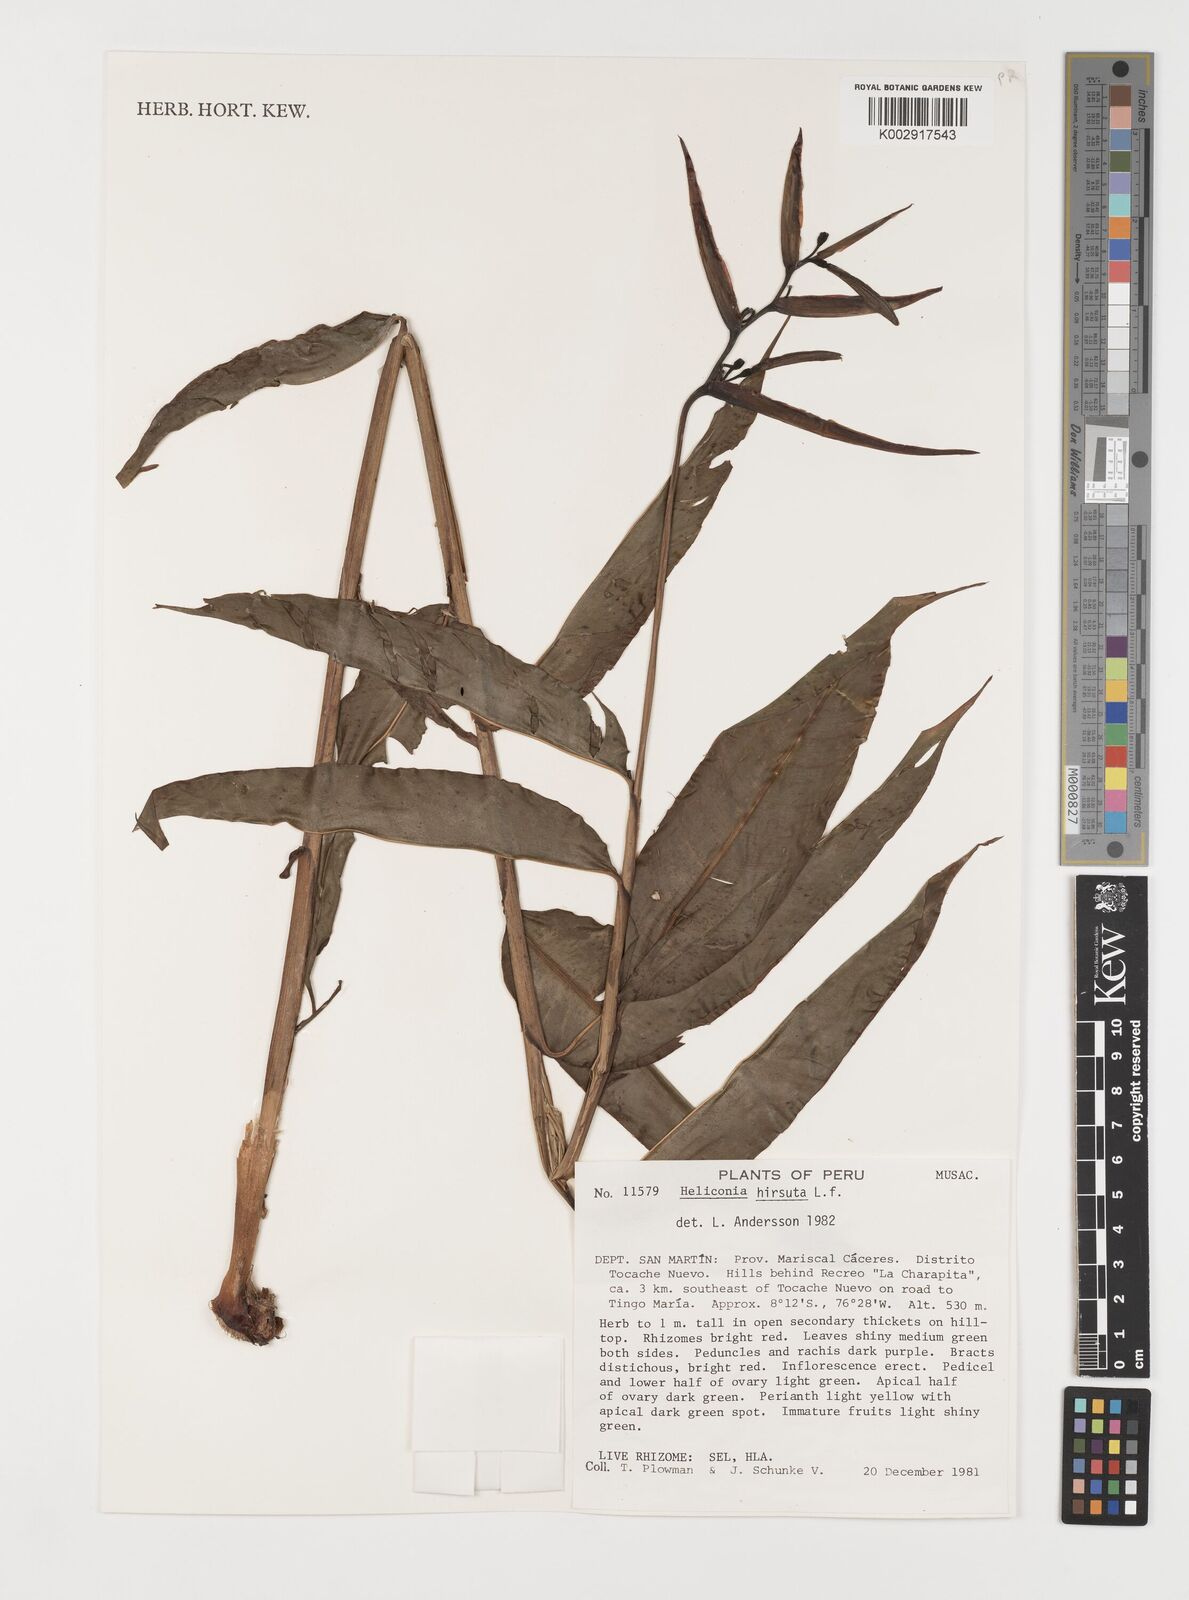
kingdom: Plantae
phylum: Tracheophyta
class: Liliopsida
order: Zingiberales
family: Heliconiaceae
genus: Heliconia
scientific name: Heliconia hirsuta
